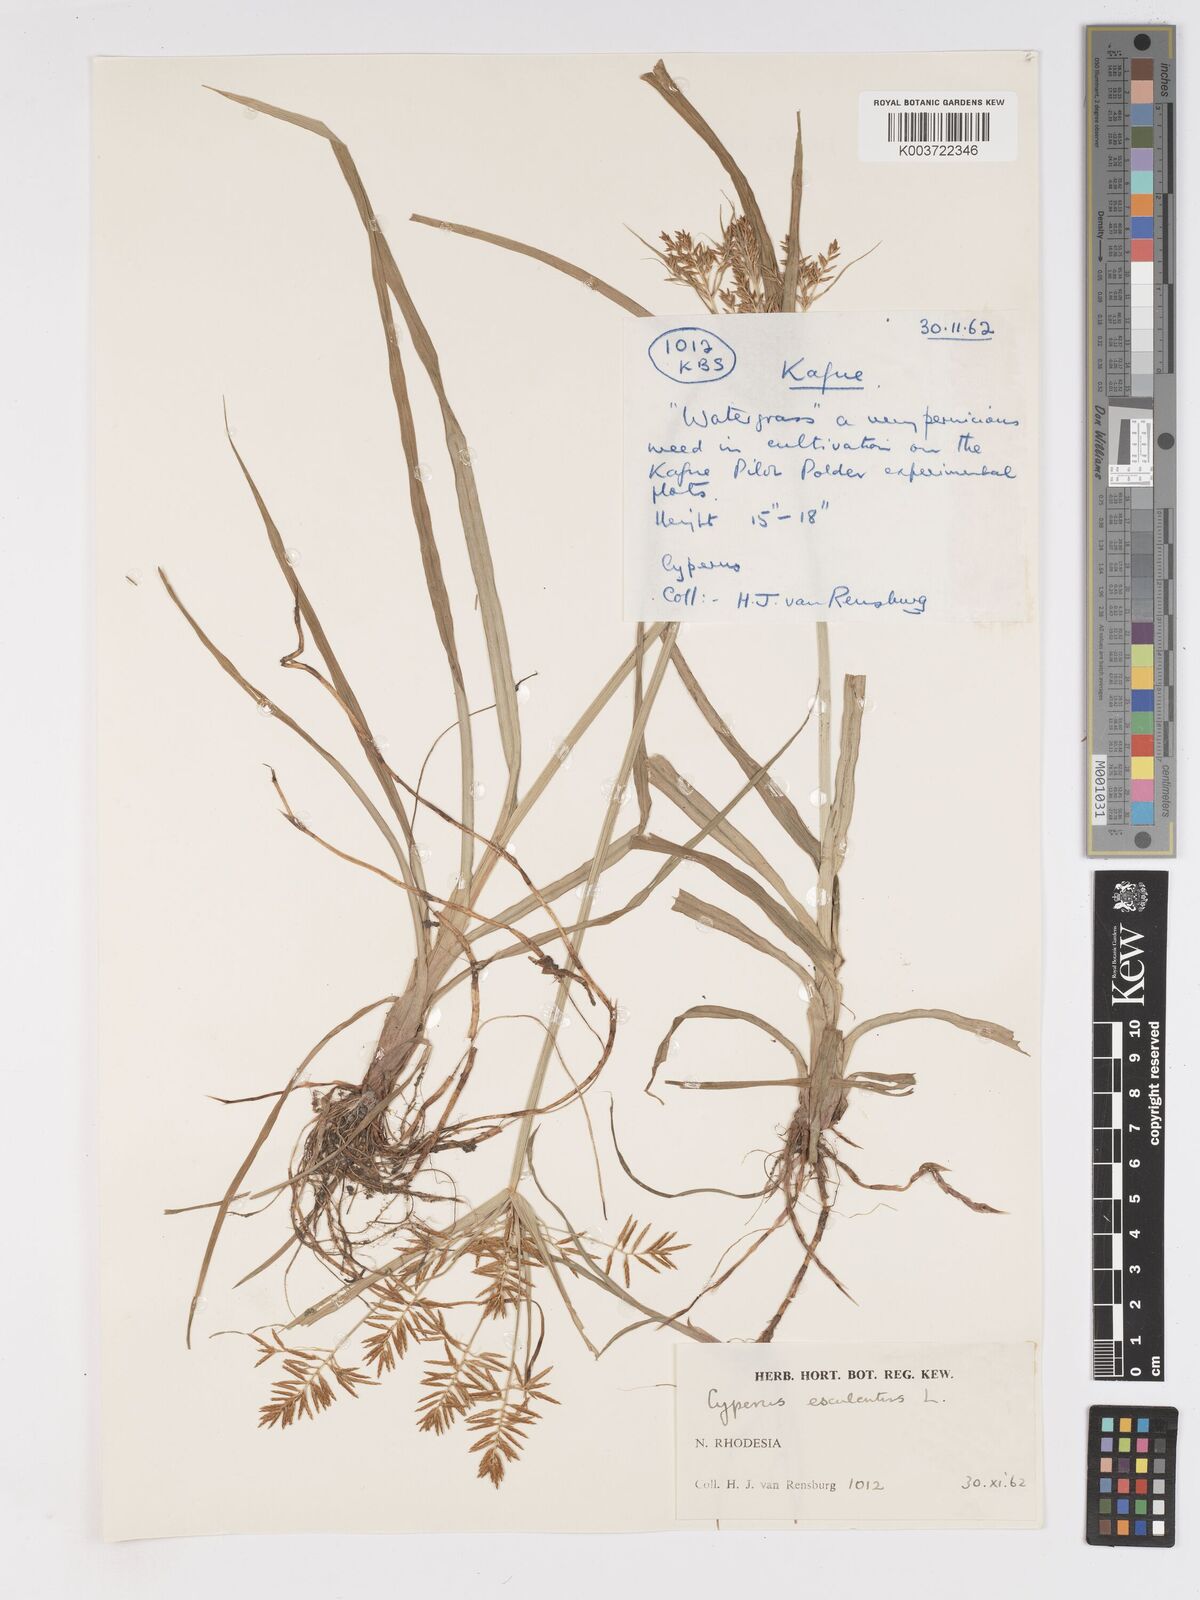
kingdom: Plantae
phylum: Tracheophyta
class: Liliopsida
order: Poales
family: Cyperaceae
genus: Cyperus
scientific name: Cyperus esculentus
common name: Yellow nutsedge
